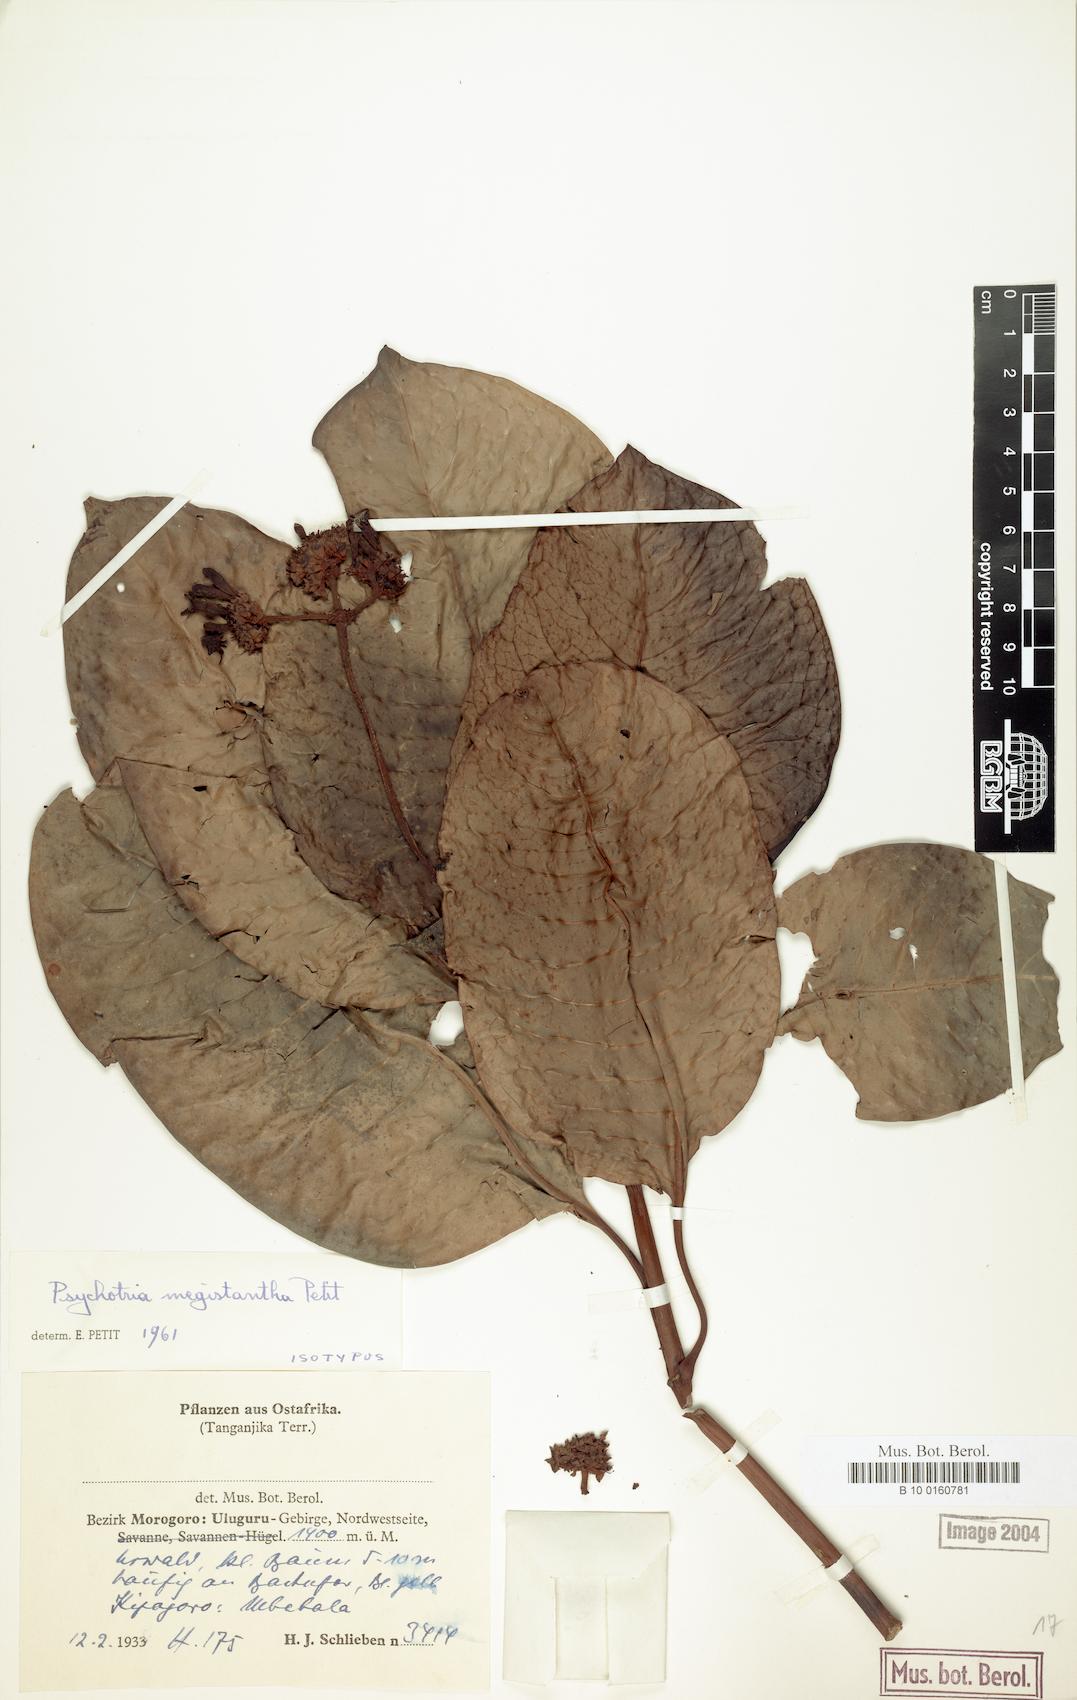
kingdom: Plantae
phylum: Tracheophyta
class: Magnoliopsida
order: Gentianales
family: Rubiaceae
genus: Psychotria
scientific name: Psychotria megistantha
